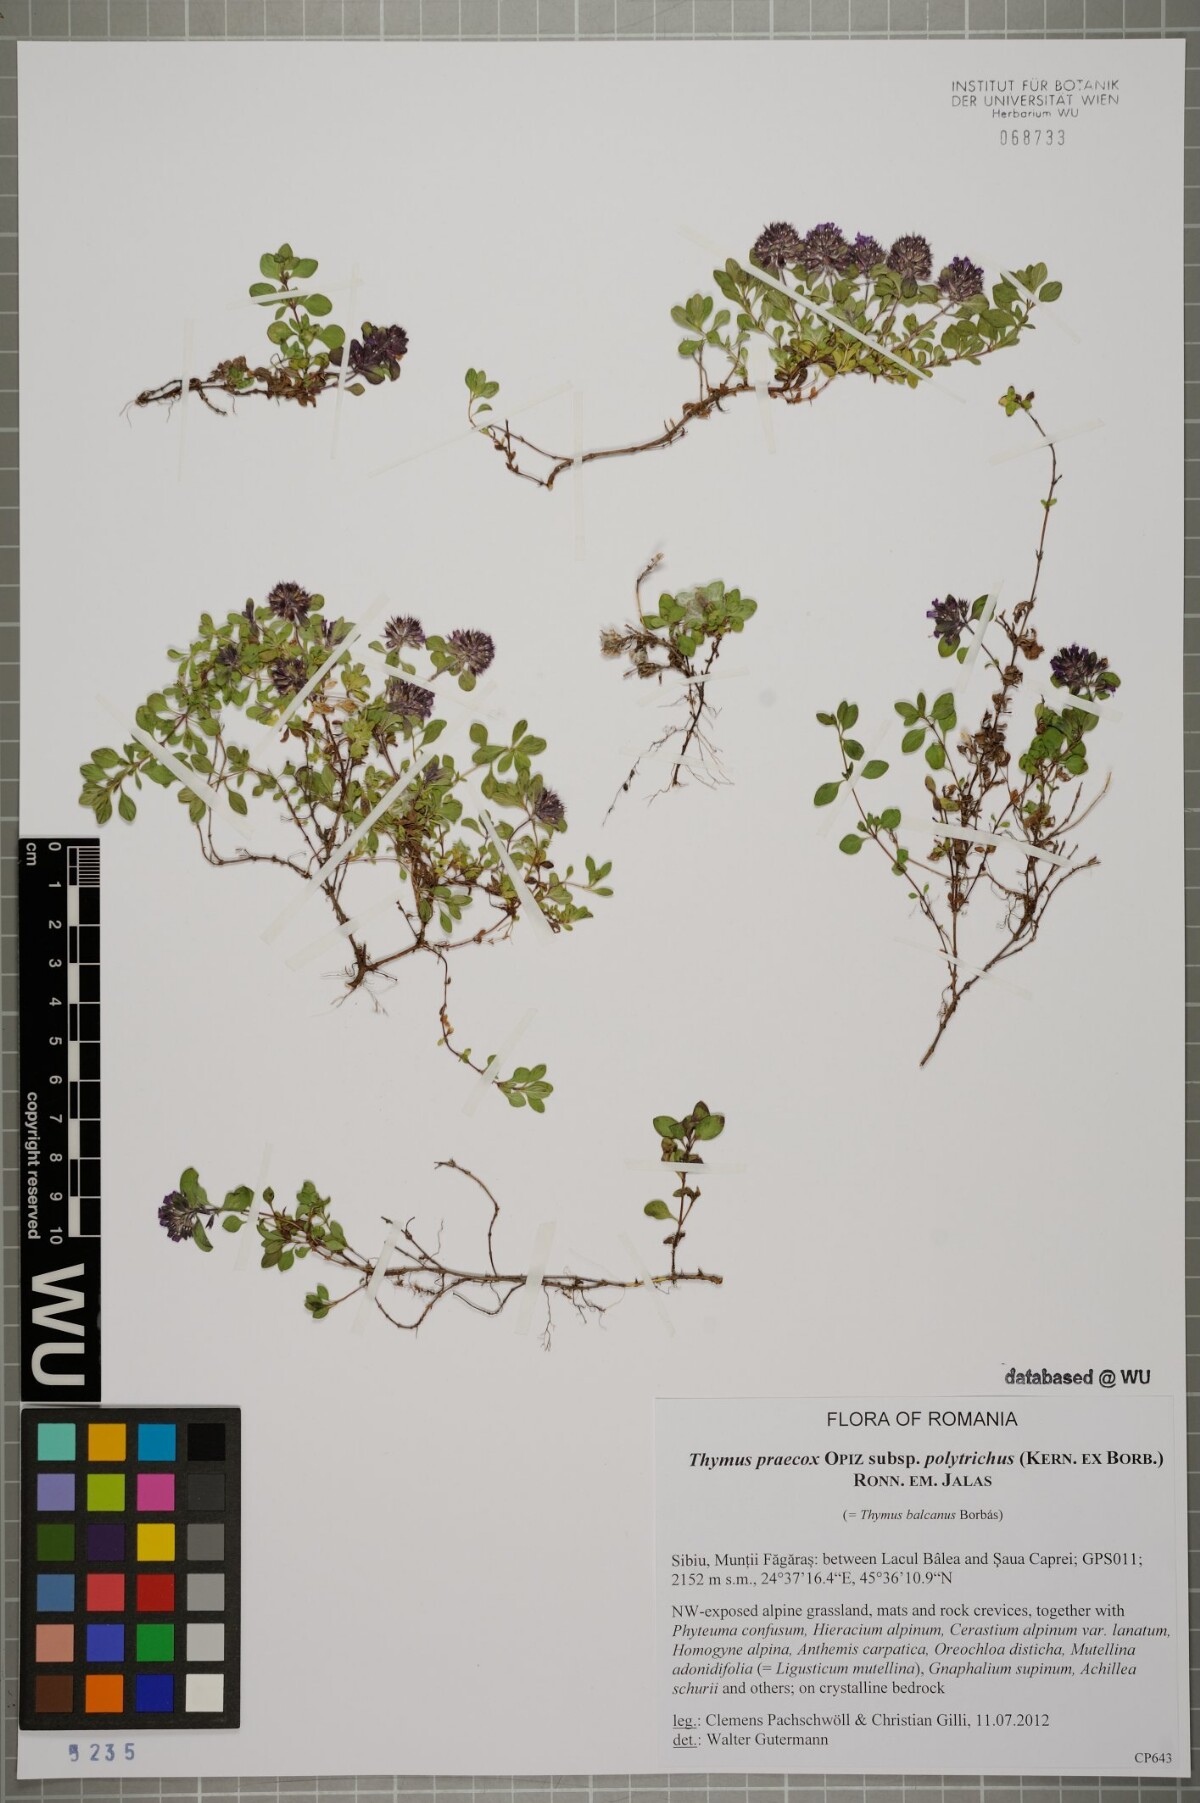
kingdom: Plantae
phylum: Tracheophyta
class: Magnoliopsida
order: Lamiales
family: Lamiaceae
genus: Thymus
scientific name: Thymus praecox
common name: Wild thyme
